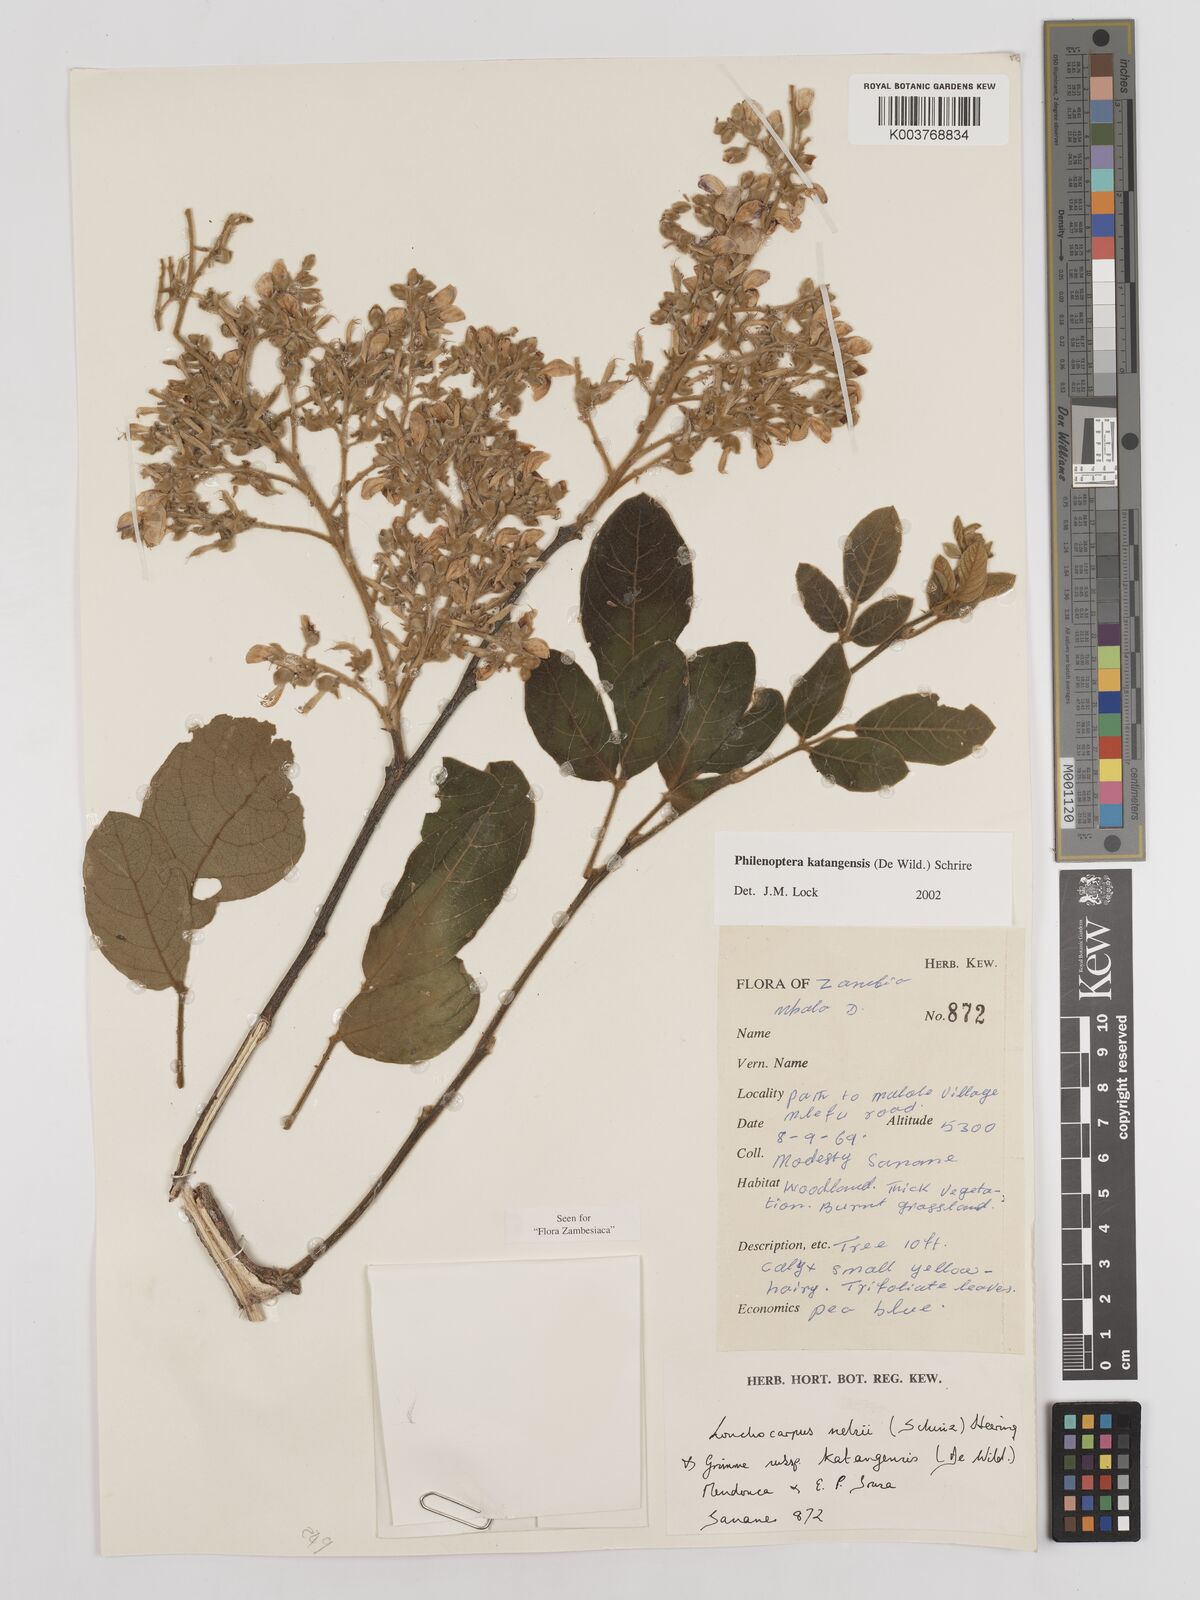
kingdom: Plantae
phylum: Tracheophyta
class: Magnoliopsida
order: Fabales
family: Fabaceae
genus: Philenoptera
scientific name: Philenoptera katangensis
